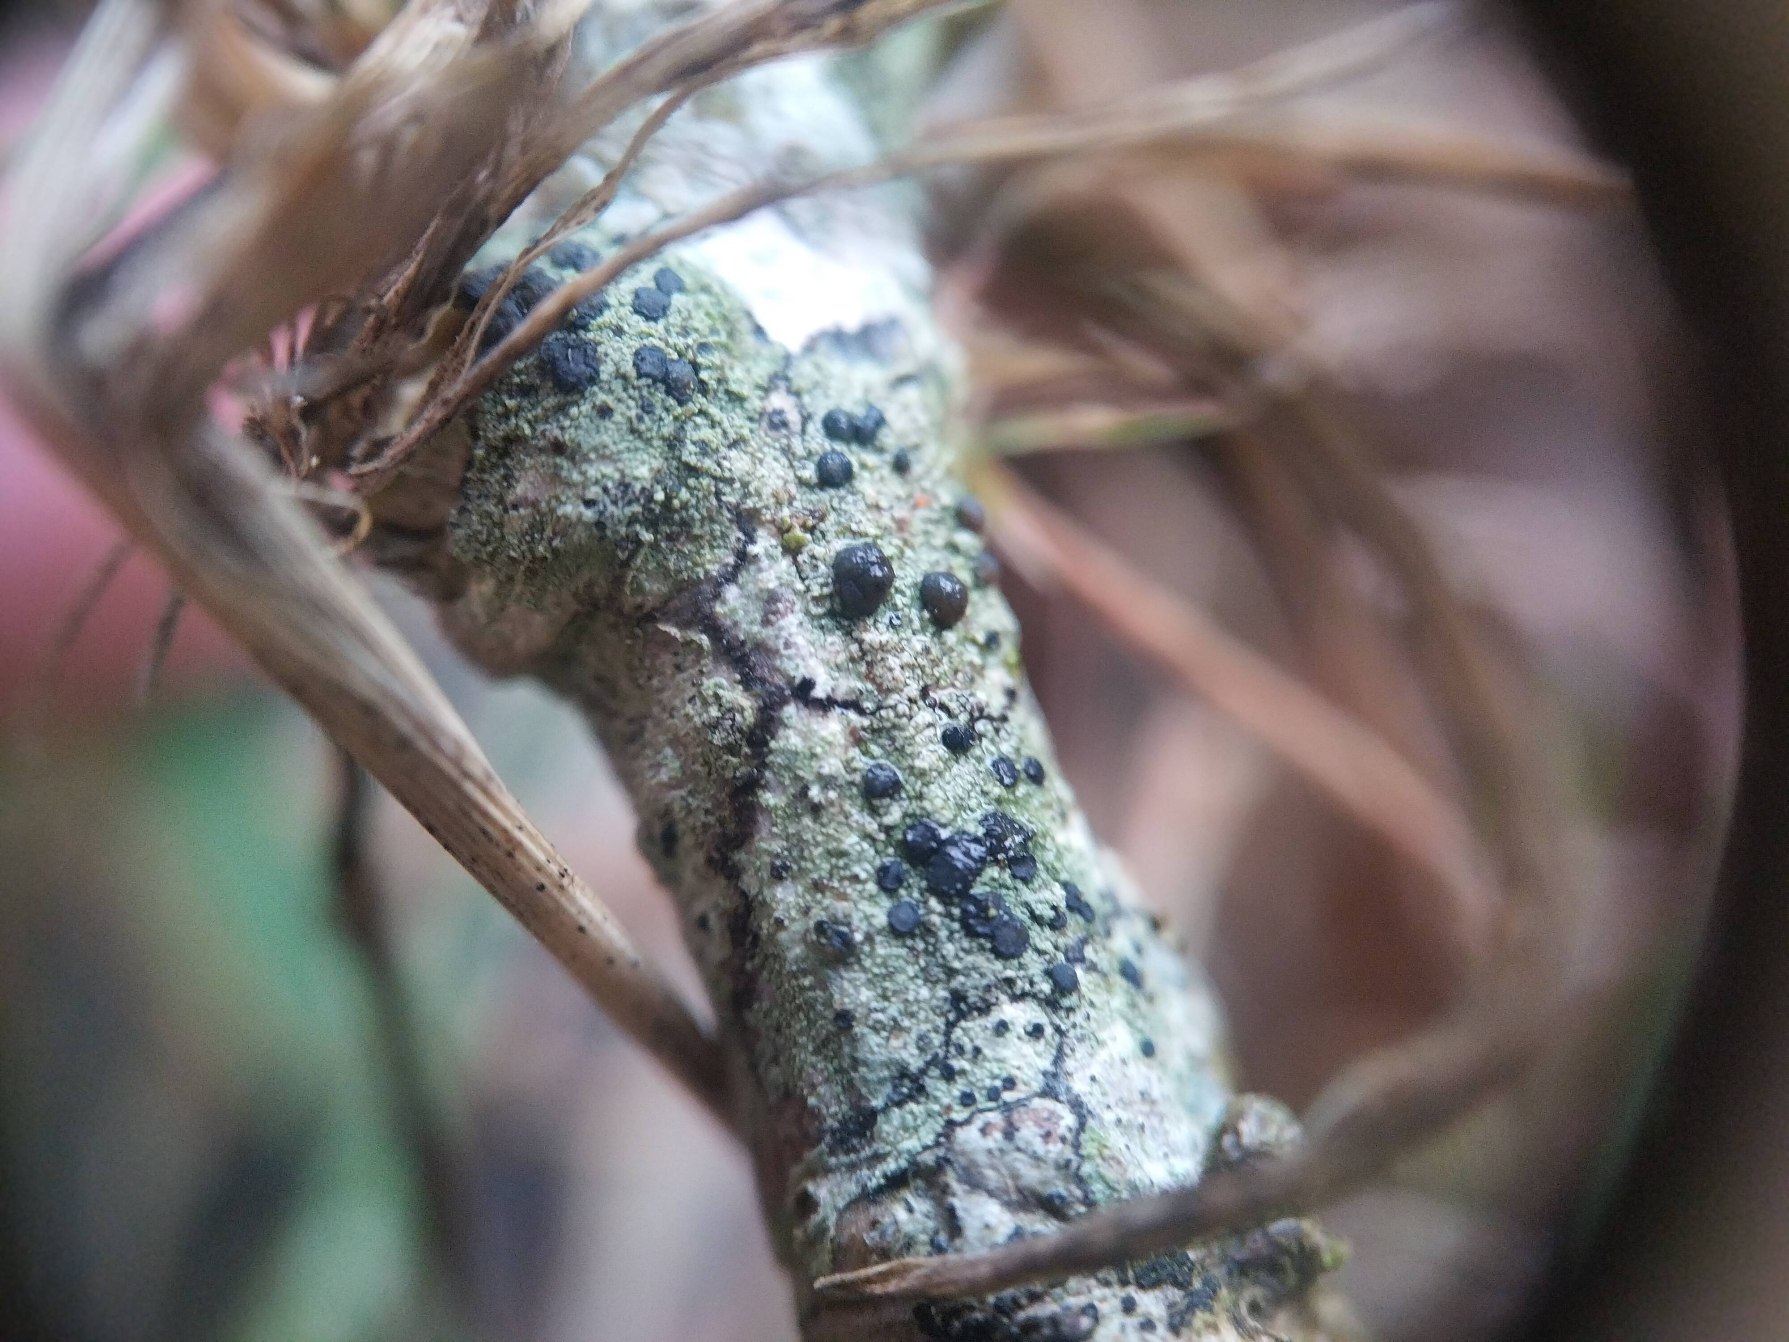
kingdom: Fungi
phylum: Ascomycota
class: Lecanoromycetes
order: Lecanorales
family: Lecanoraceae
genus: Lecidella
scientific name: Lecidella elaeochroma
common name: Grågrøn skivelav
